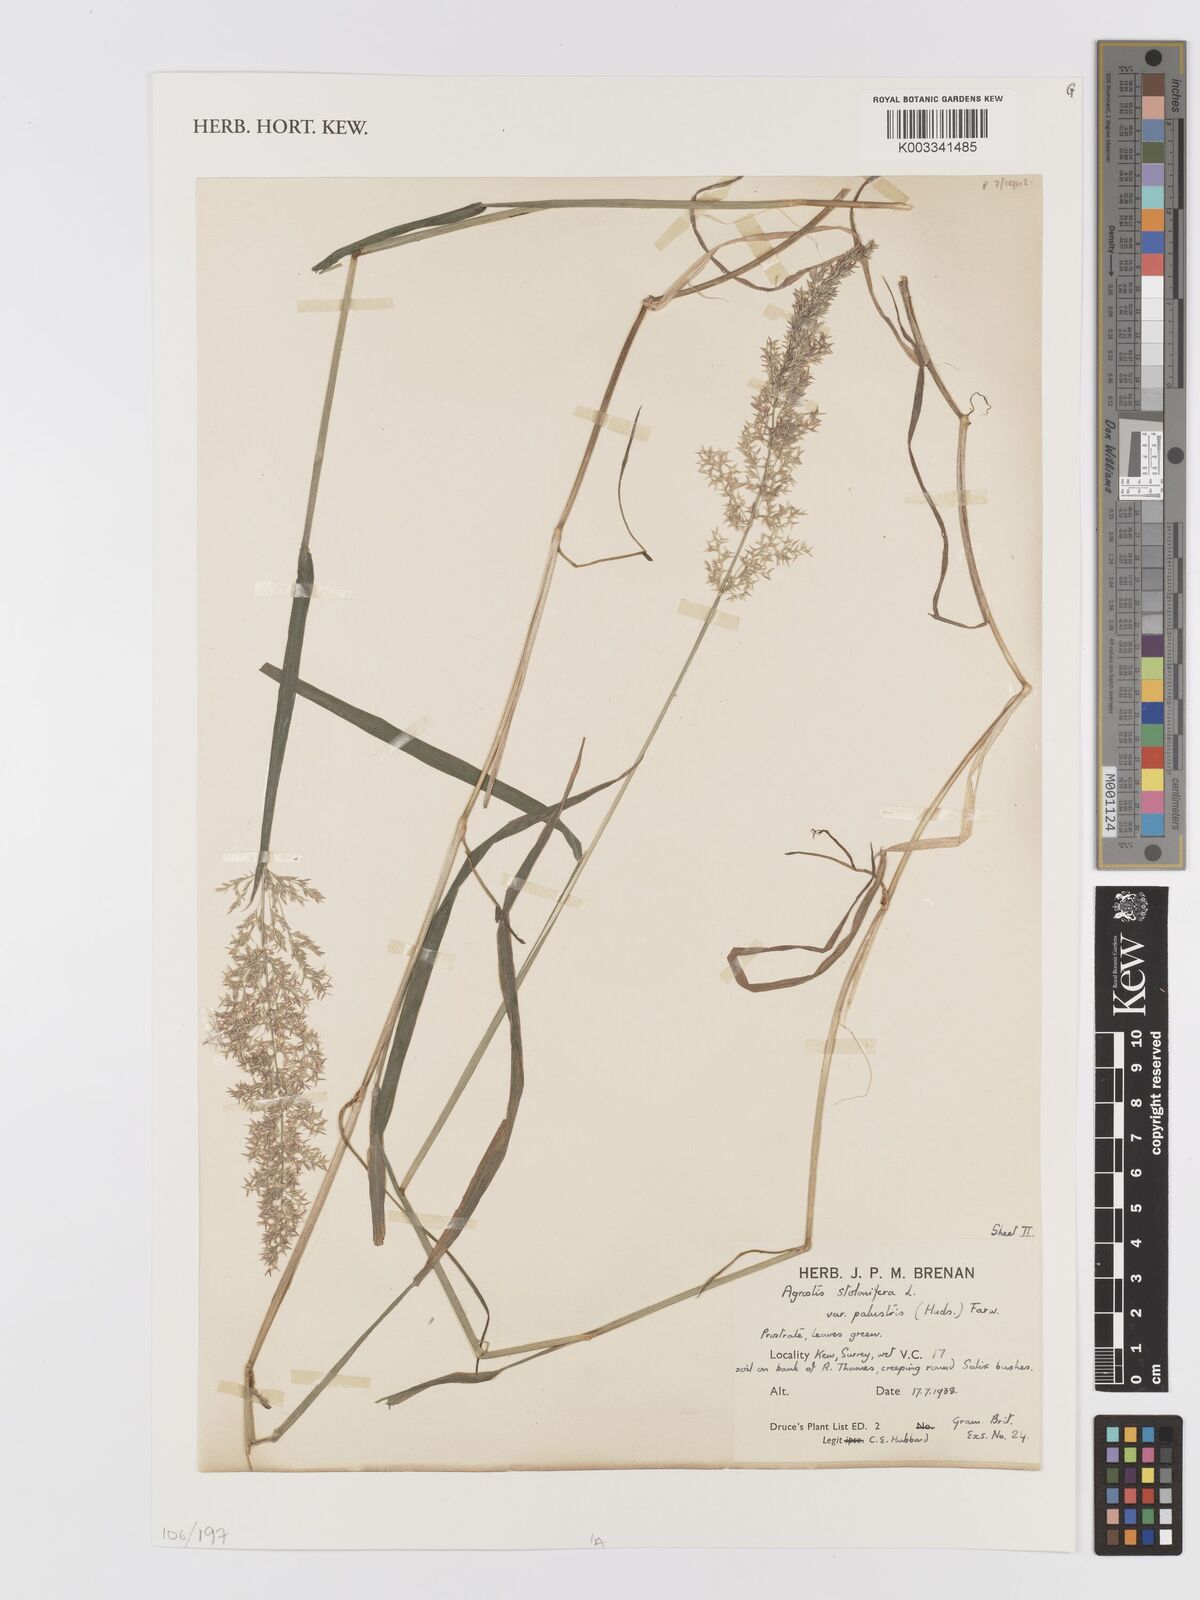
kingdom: Plantae
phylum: Tracheophyta
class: Liliopsida
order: Poales
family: Poaceae
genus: Agrostis
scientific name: Agrostis stolonifera
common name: Creeping bentgrass
